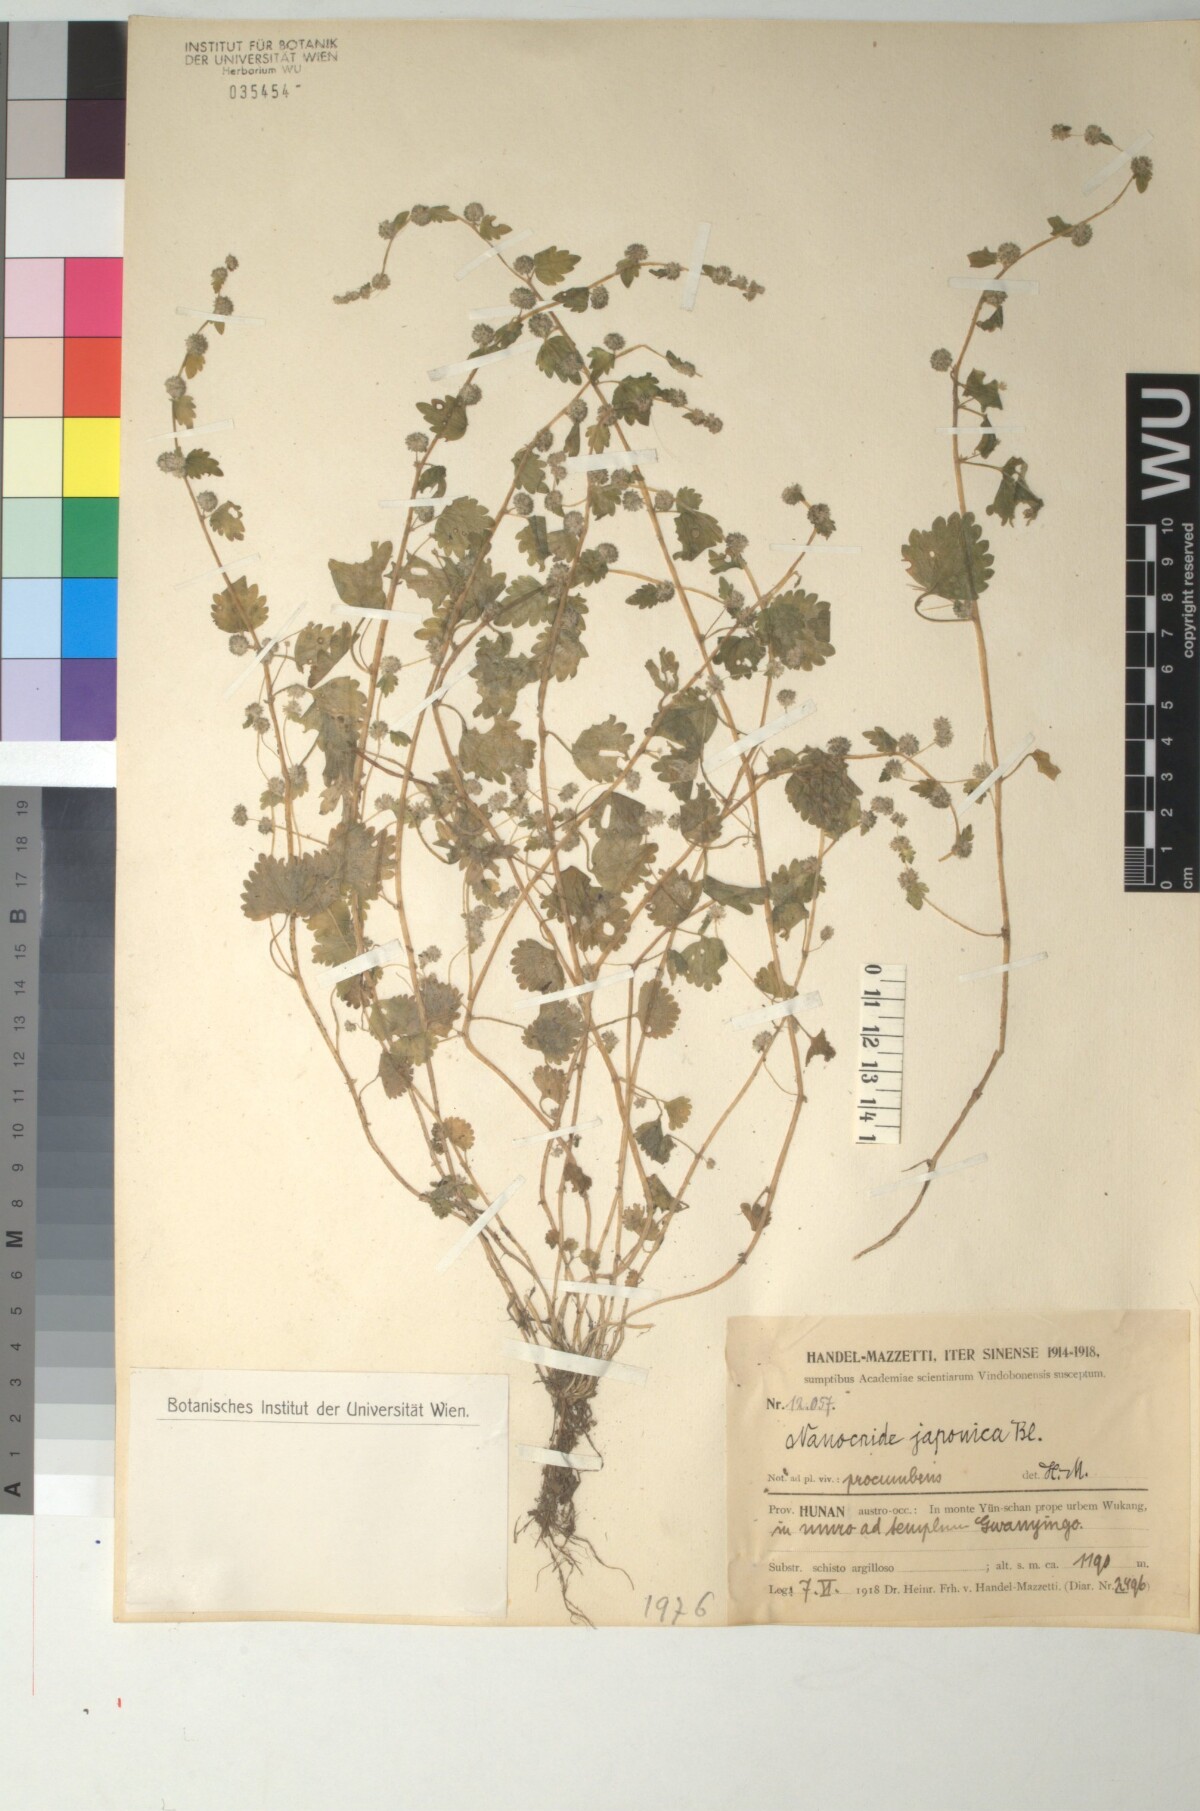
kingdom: Plantae
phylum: Tracheophyta
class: Magnoliopsida
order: Rosales
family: Urticaceae
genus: Nanocnide
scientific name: Nanocnide japonica
